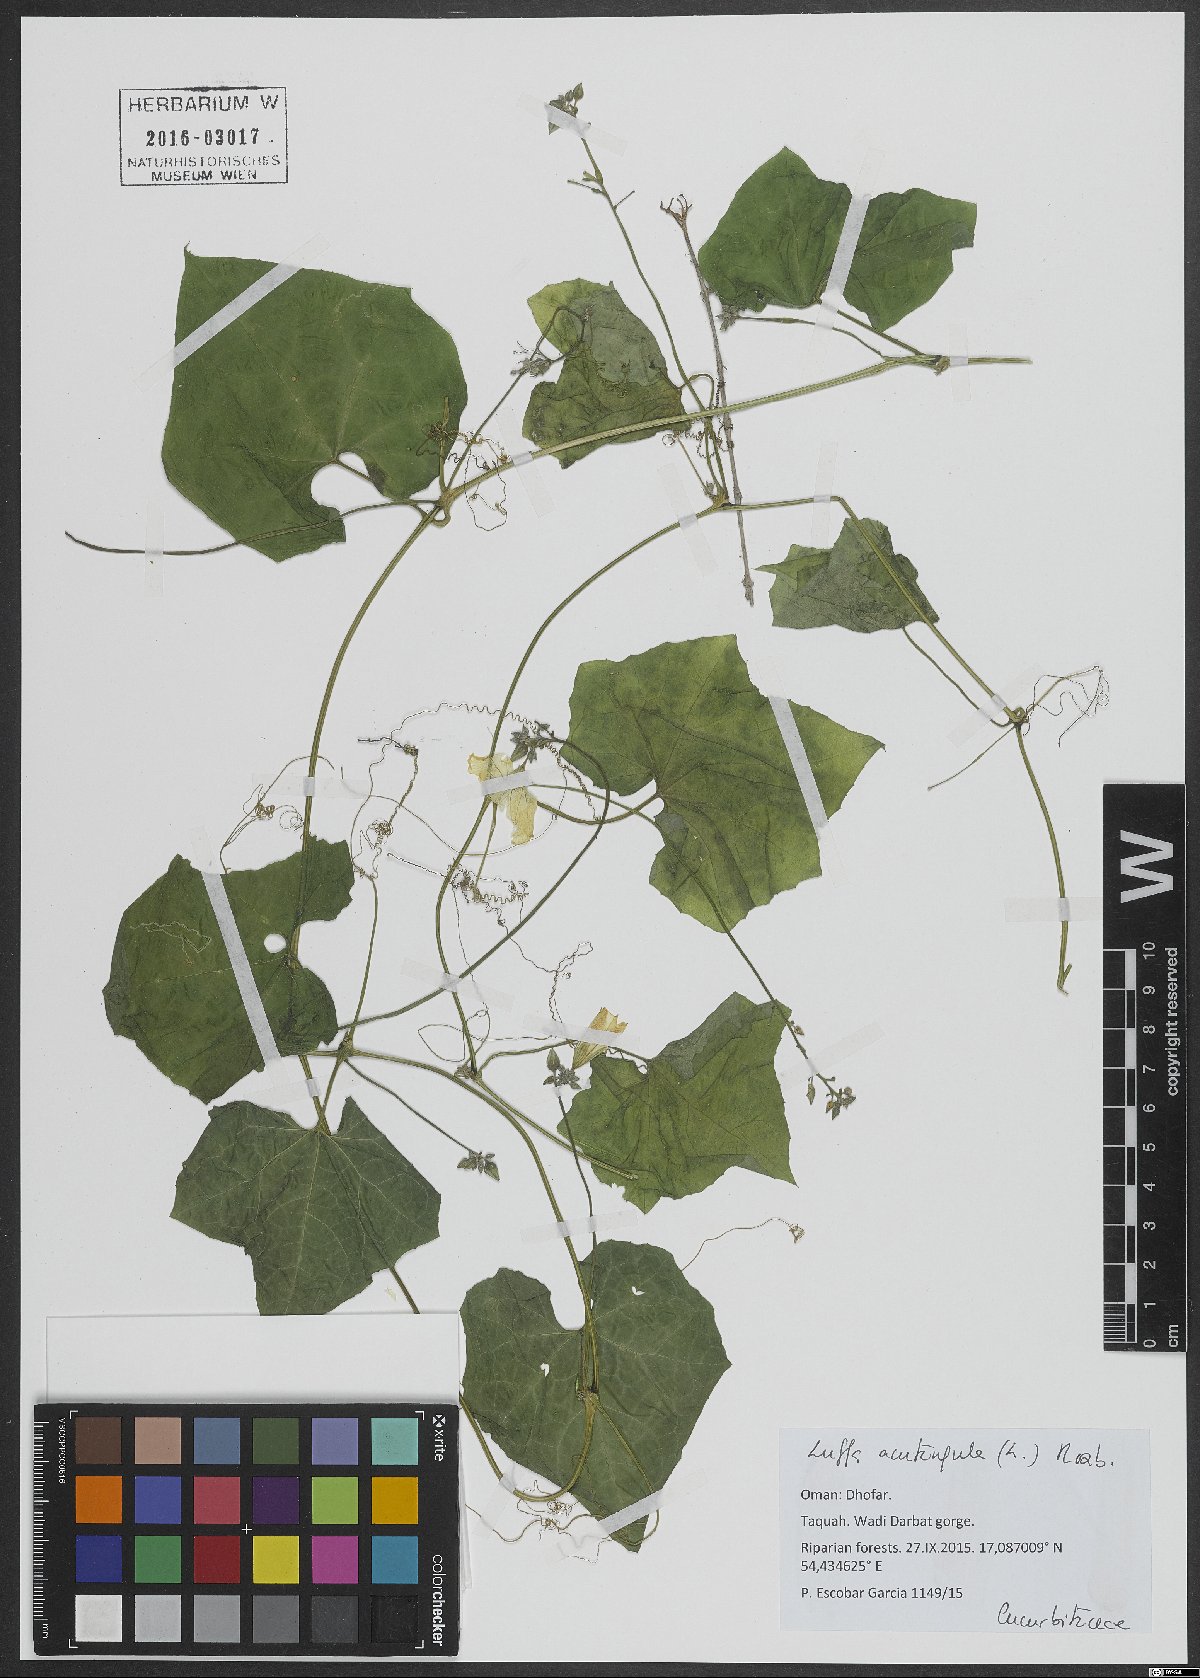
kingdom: Plantae
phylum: Tracheophyta
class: Magnoliopsida
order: Cucurbitales
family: Cucurbitaceae
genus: Luffa
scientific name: Luffa acutangula
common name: Sinkwa towelsponge
